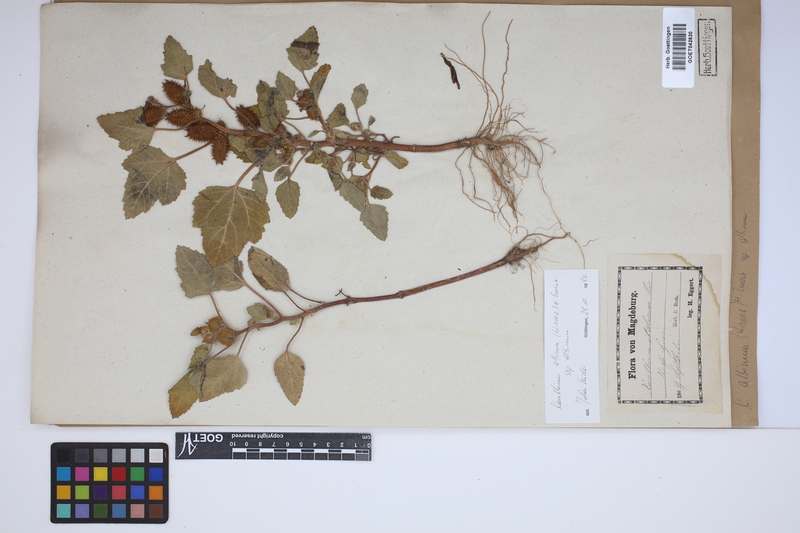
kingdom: Plantae
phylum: Tracheophyta
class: Magnoliopsida
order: Asterales
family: Asteraceae
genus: Xanthium
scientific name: Xanthium orientale
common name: Californian burr
